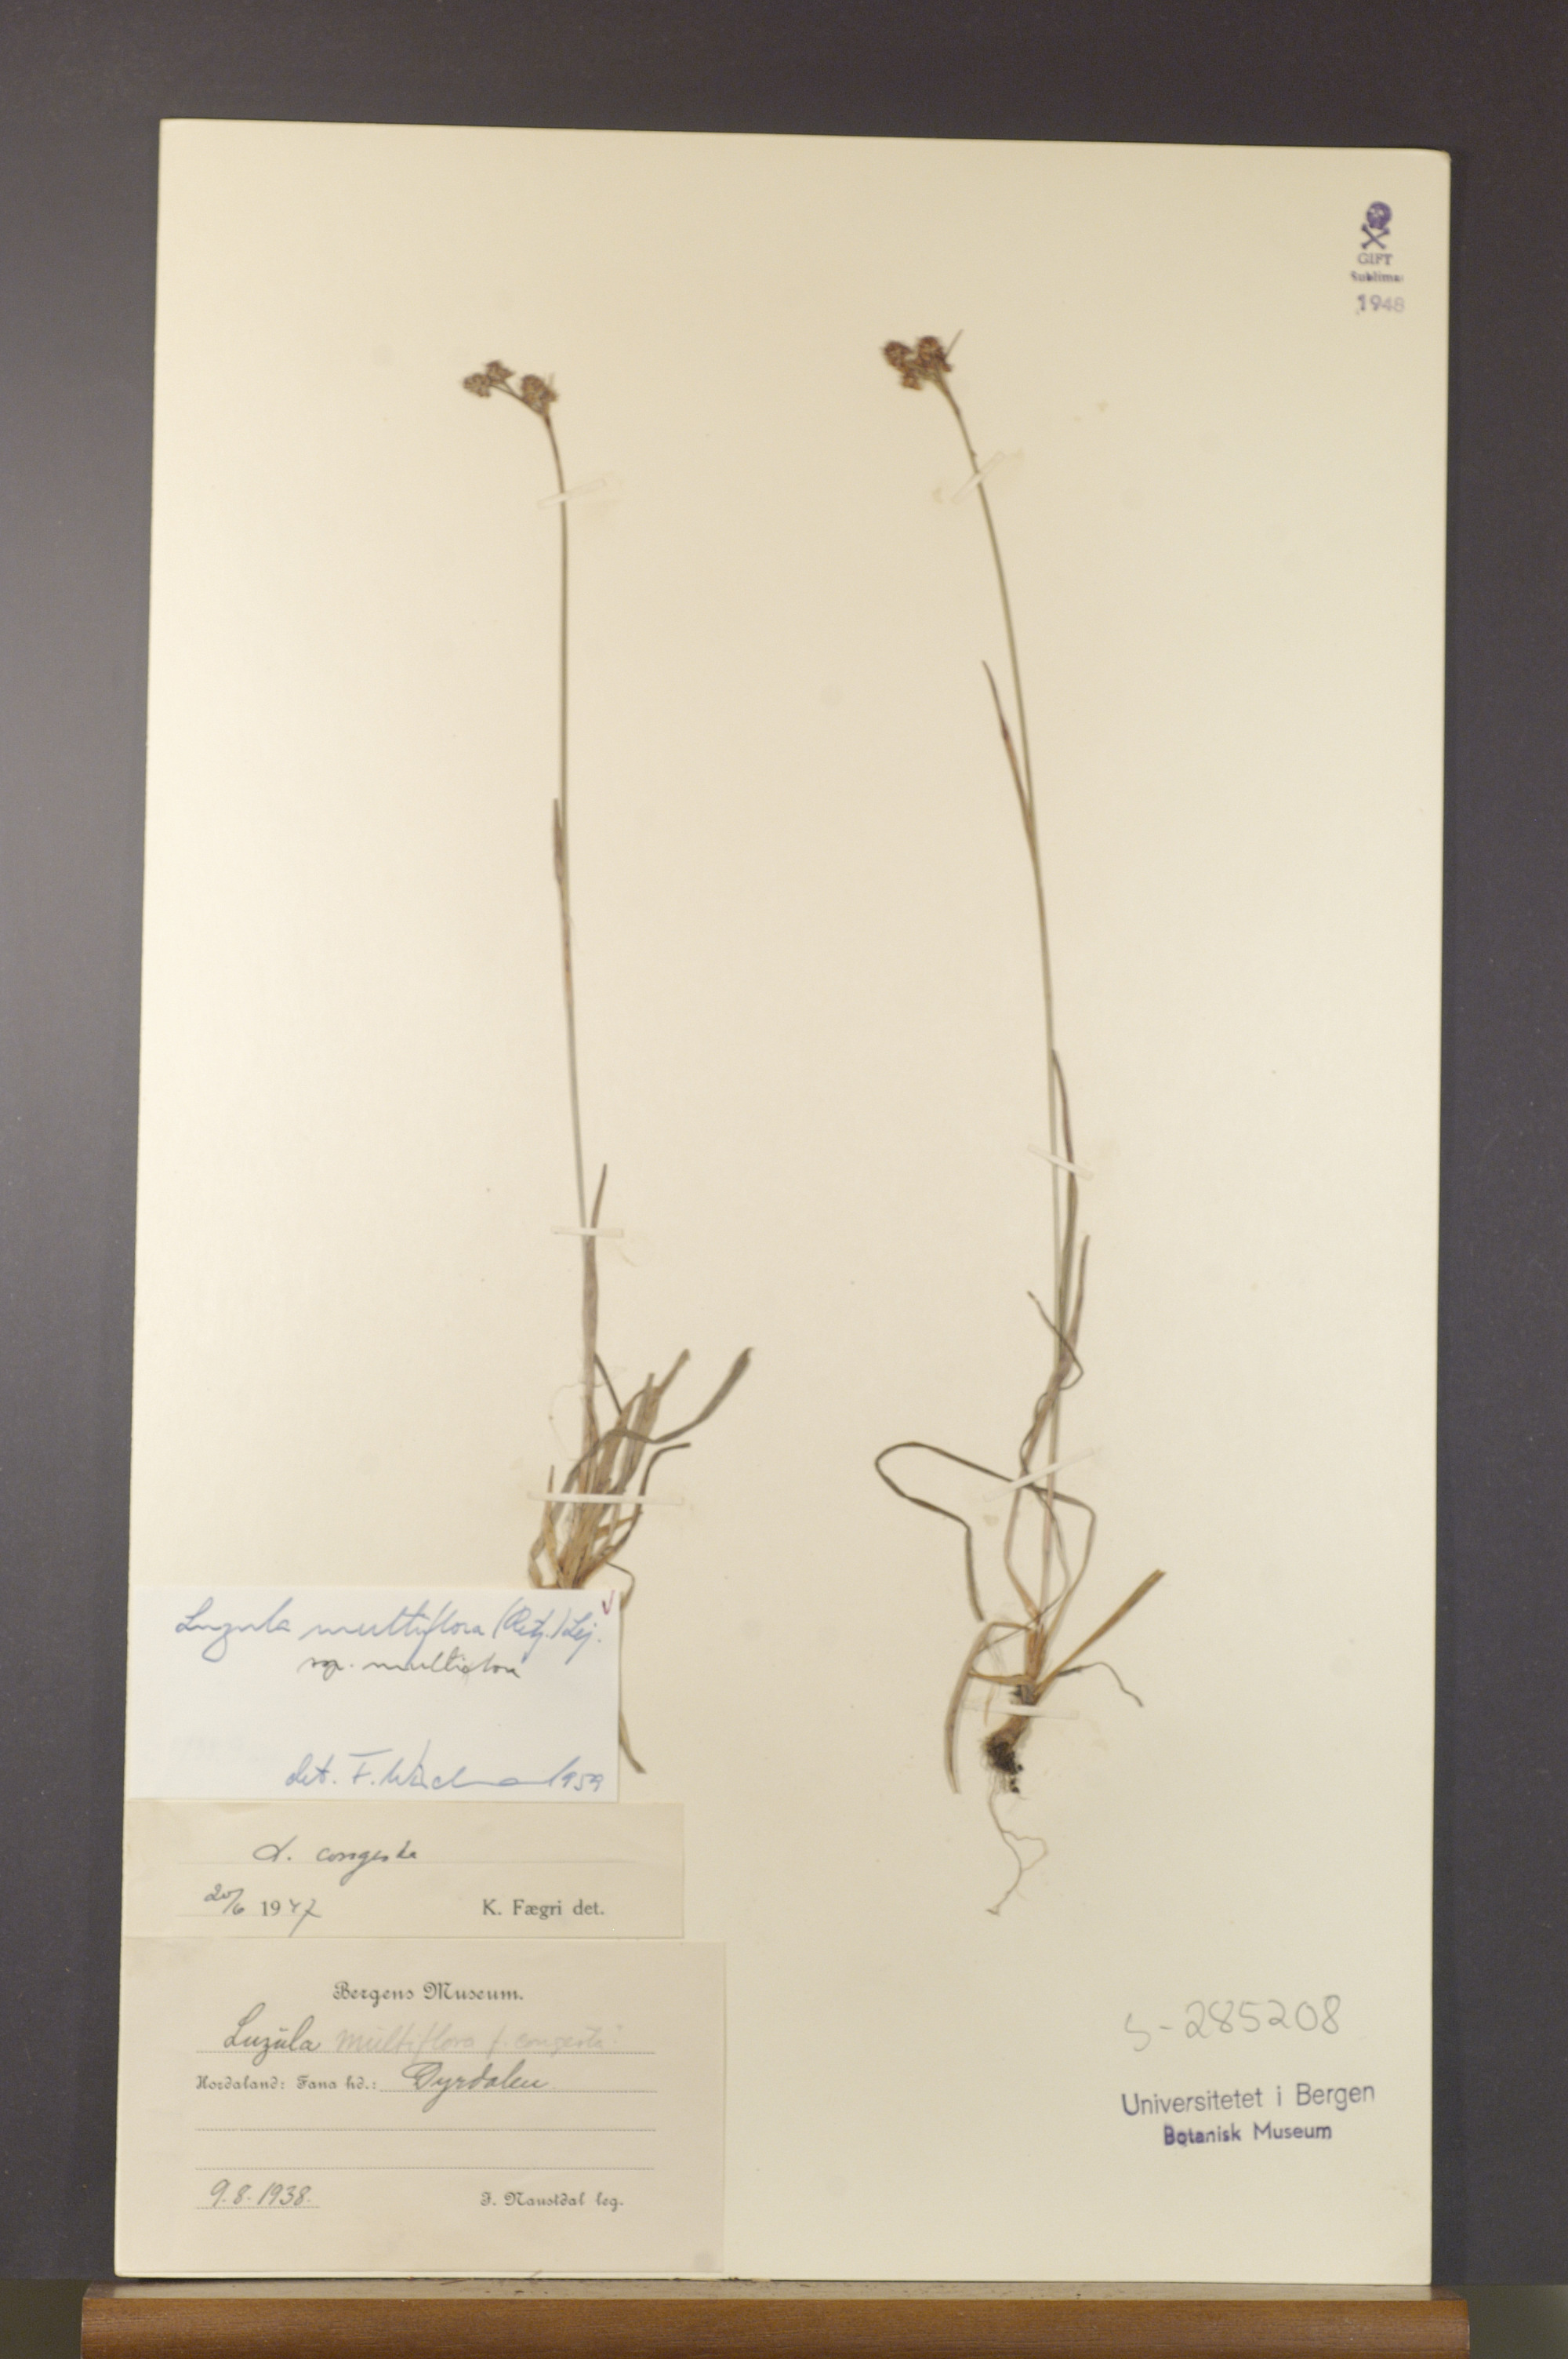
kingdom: Plantae
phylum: Tracheophyta
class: Liliopsida
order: Poales
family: Juncaceae
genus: Luzula
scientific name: Luzula multiflora
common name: Heath wood-rush
